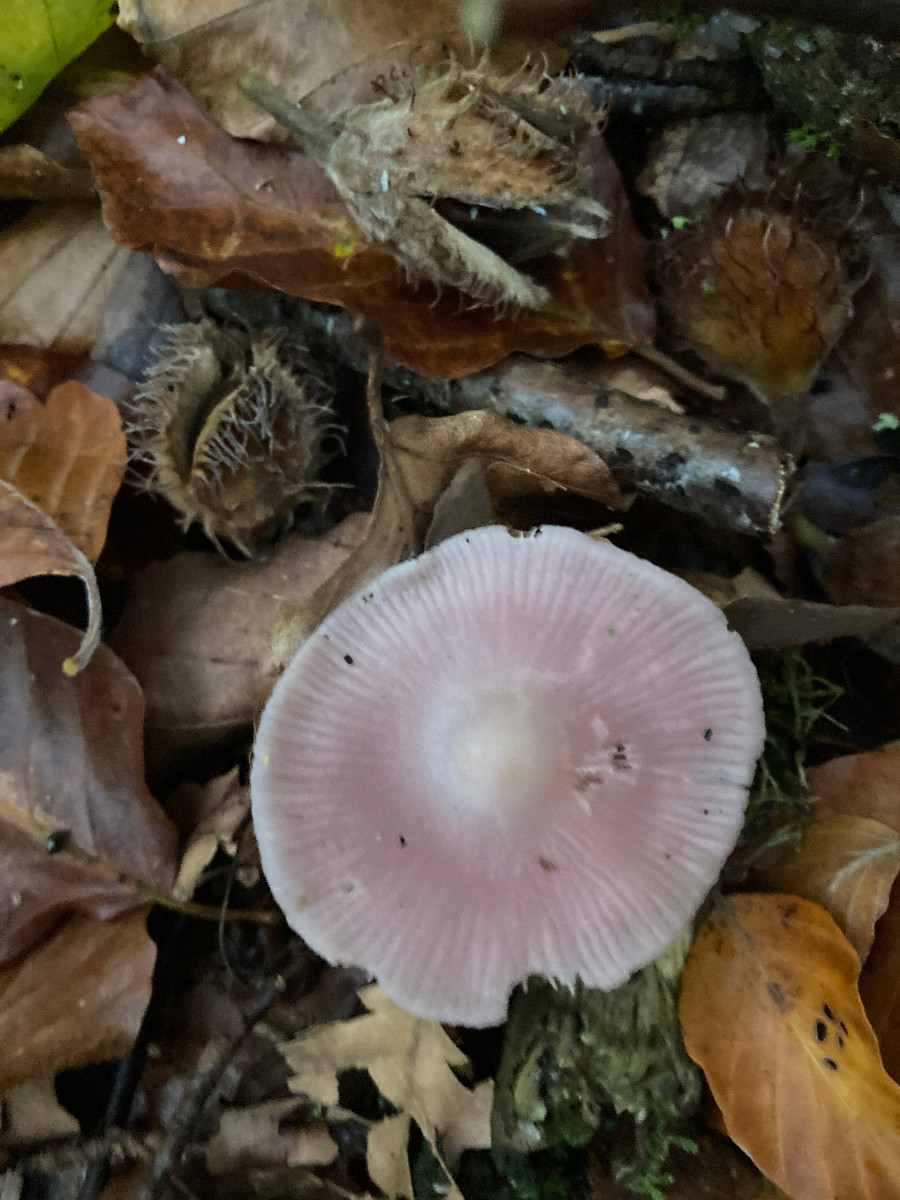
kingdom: Fungi
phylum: Basidiomycota
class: Agaricomycetes
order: Agaricales
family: Mycenaceae
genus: Mycena
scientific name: Mycena rosea
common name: rosa huesvamp
